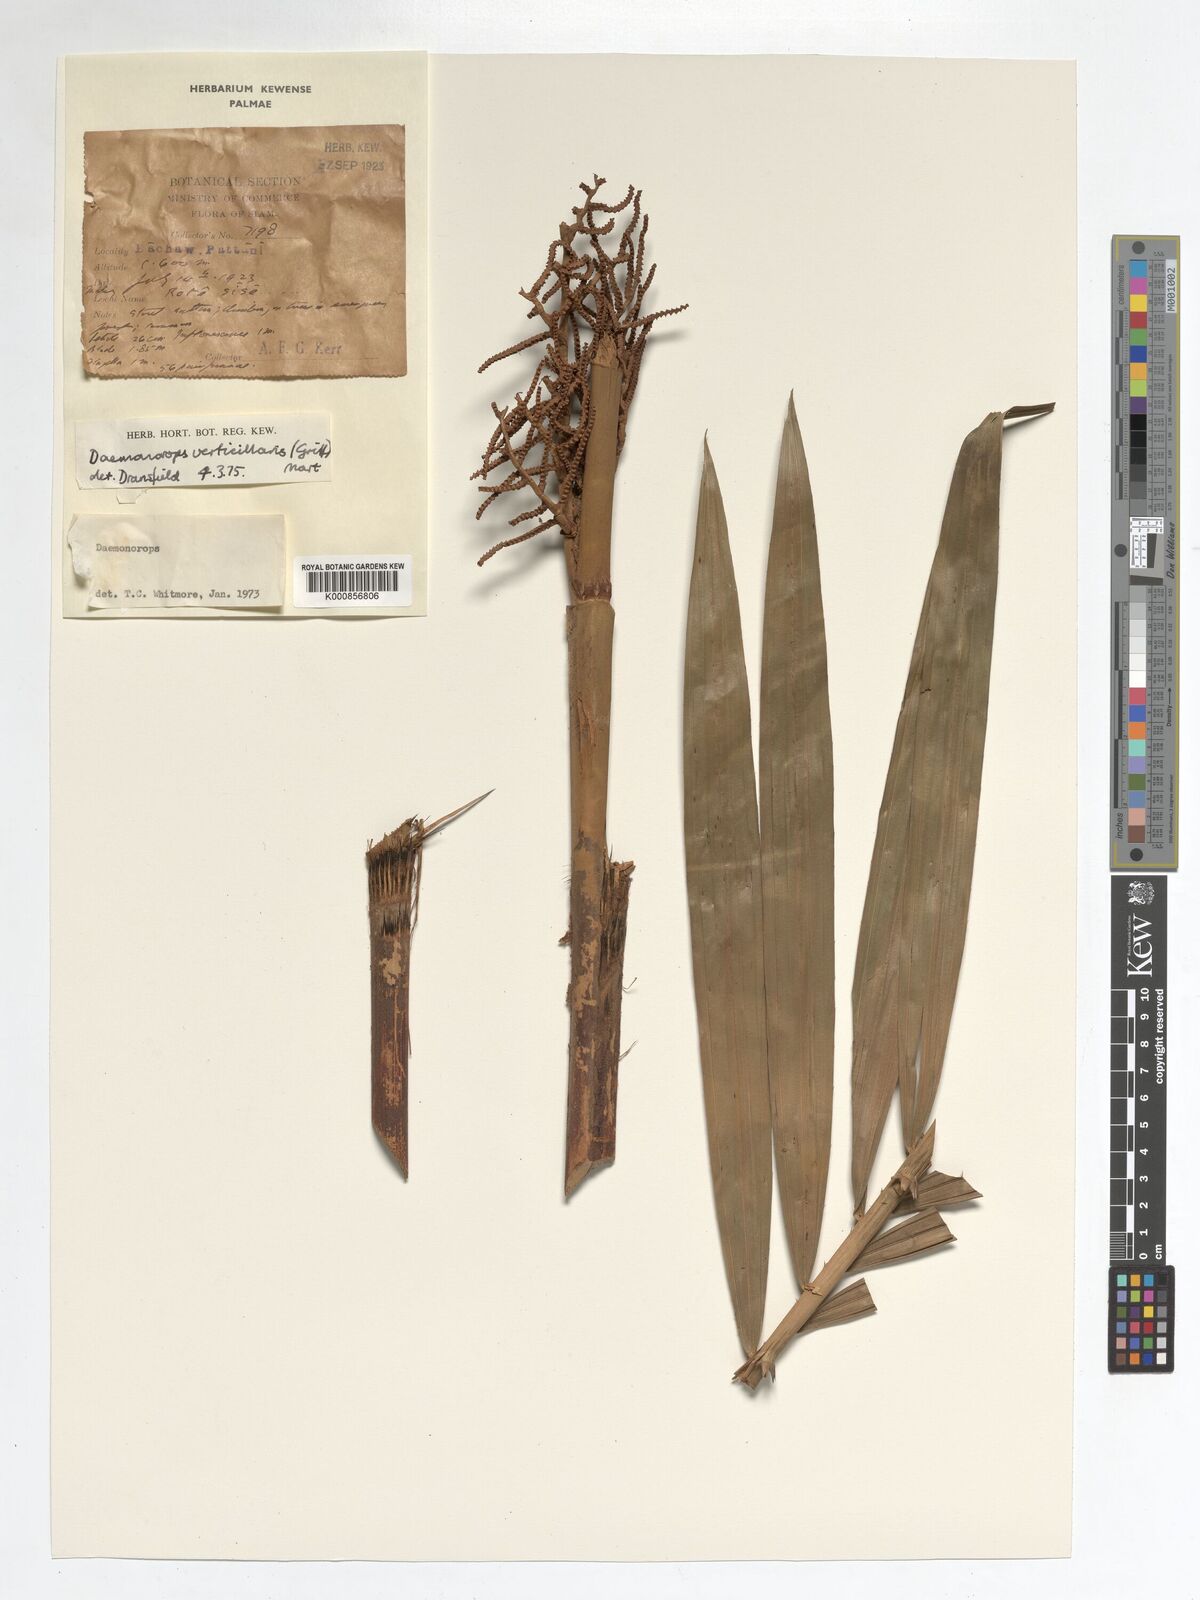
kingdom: Plantae
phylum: Tracheophyta
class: Liliopsida
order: Arecales
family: Arecaceae
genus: Calamus
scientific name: Calamus verticillaris
